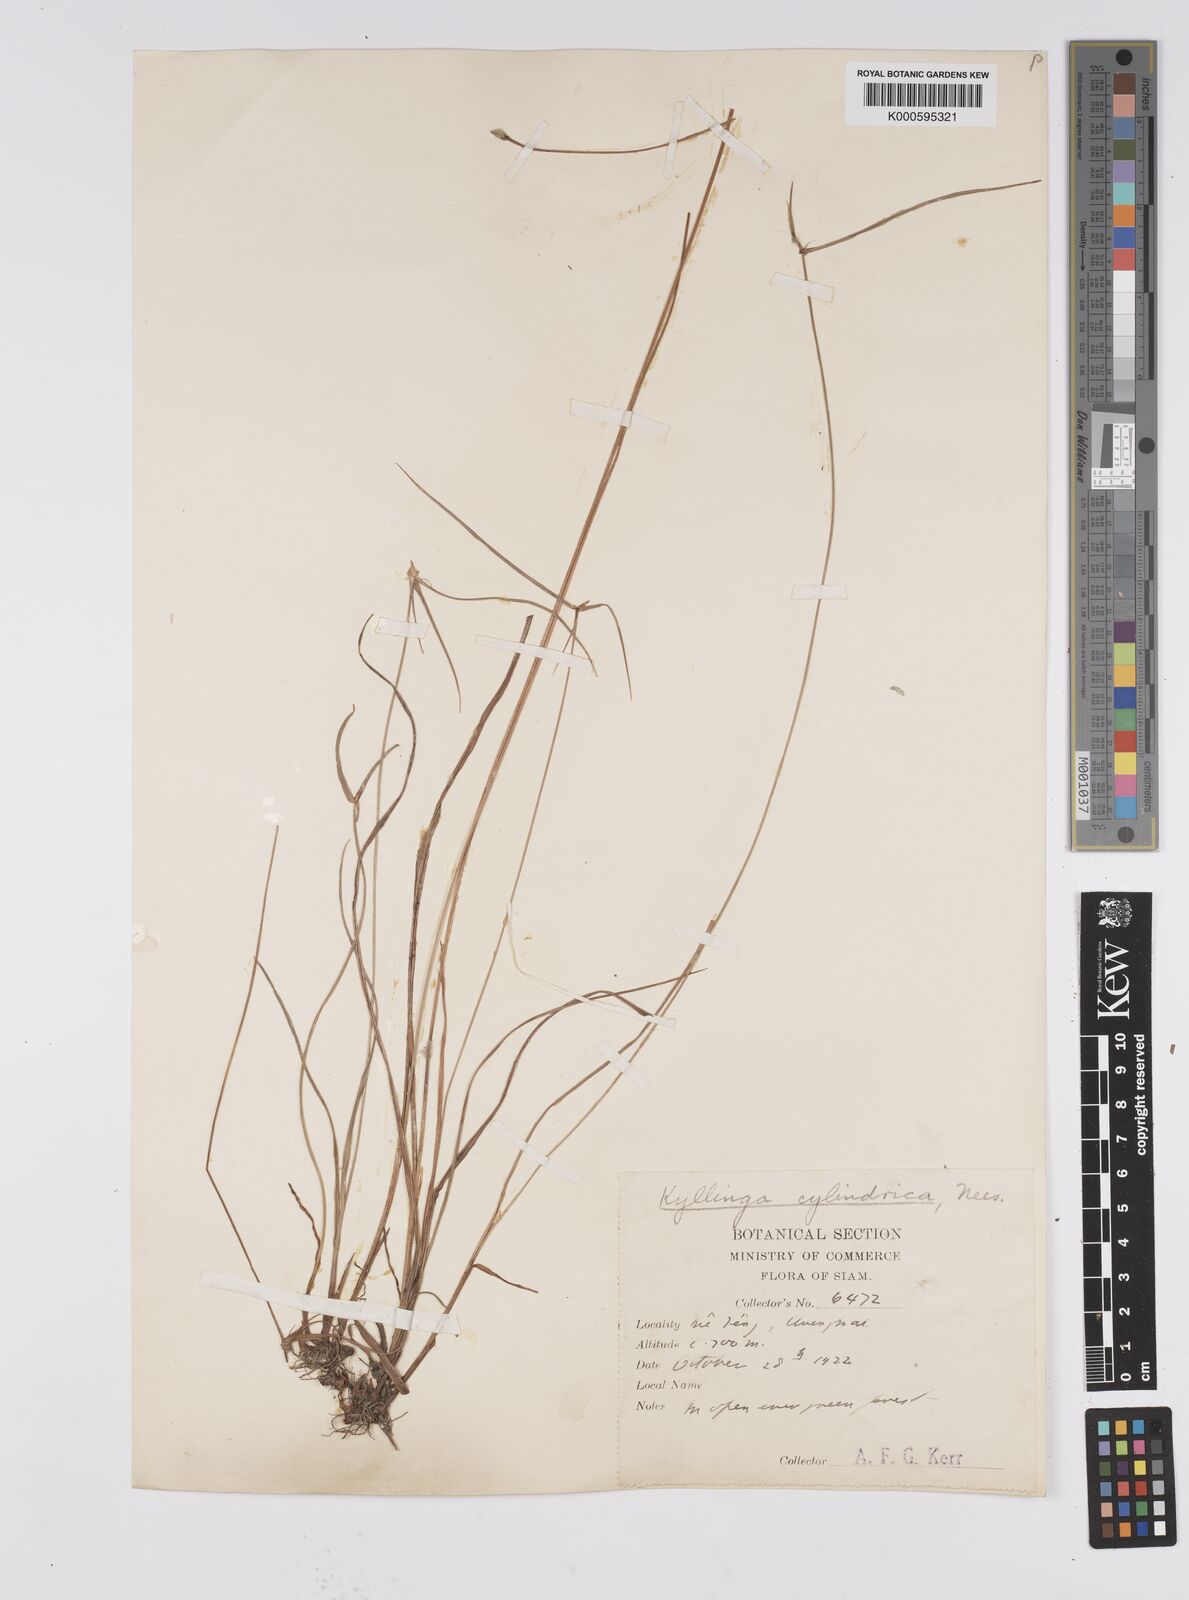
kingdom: Plantae
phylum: Tracheophyta
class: Liliopsida
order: Poales
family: Cyperaceae
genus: Cyperus
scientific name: Cyperus sesquiflorus
